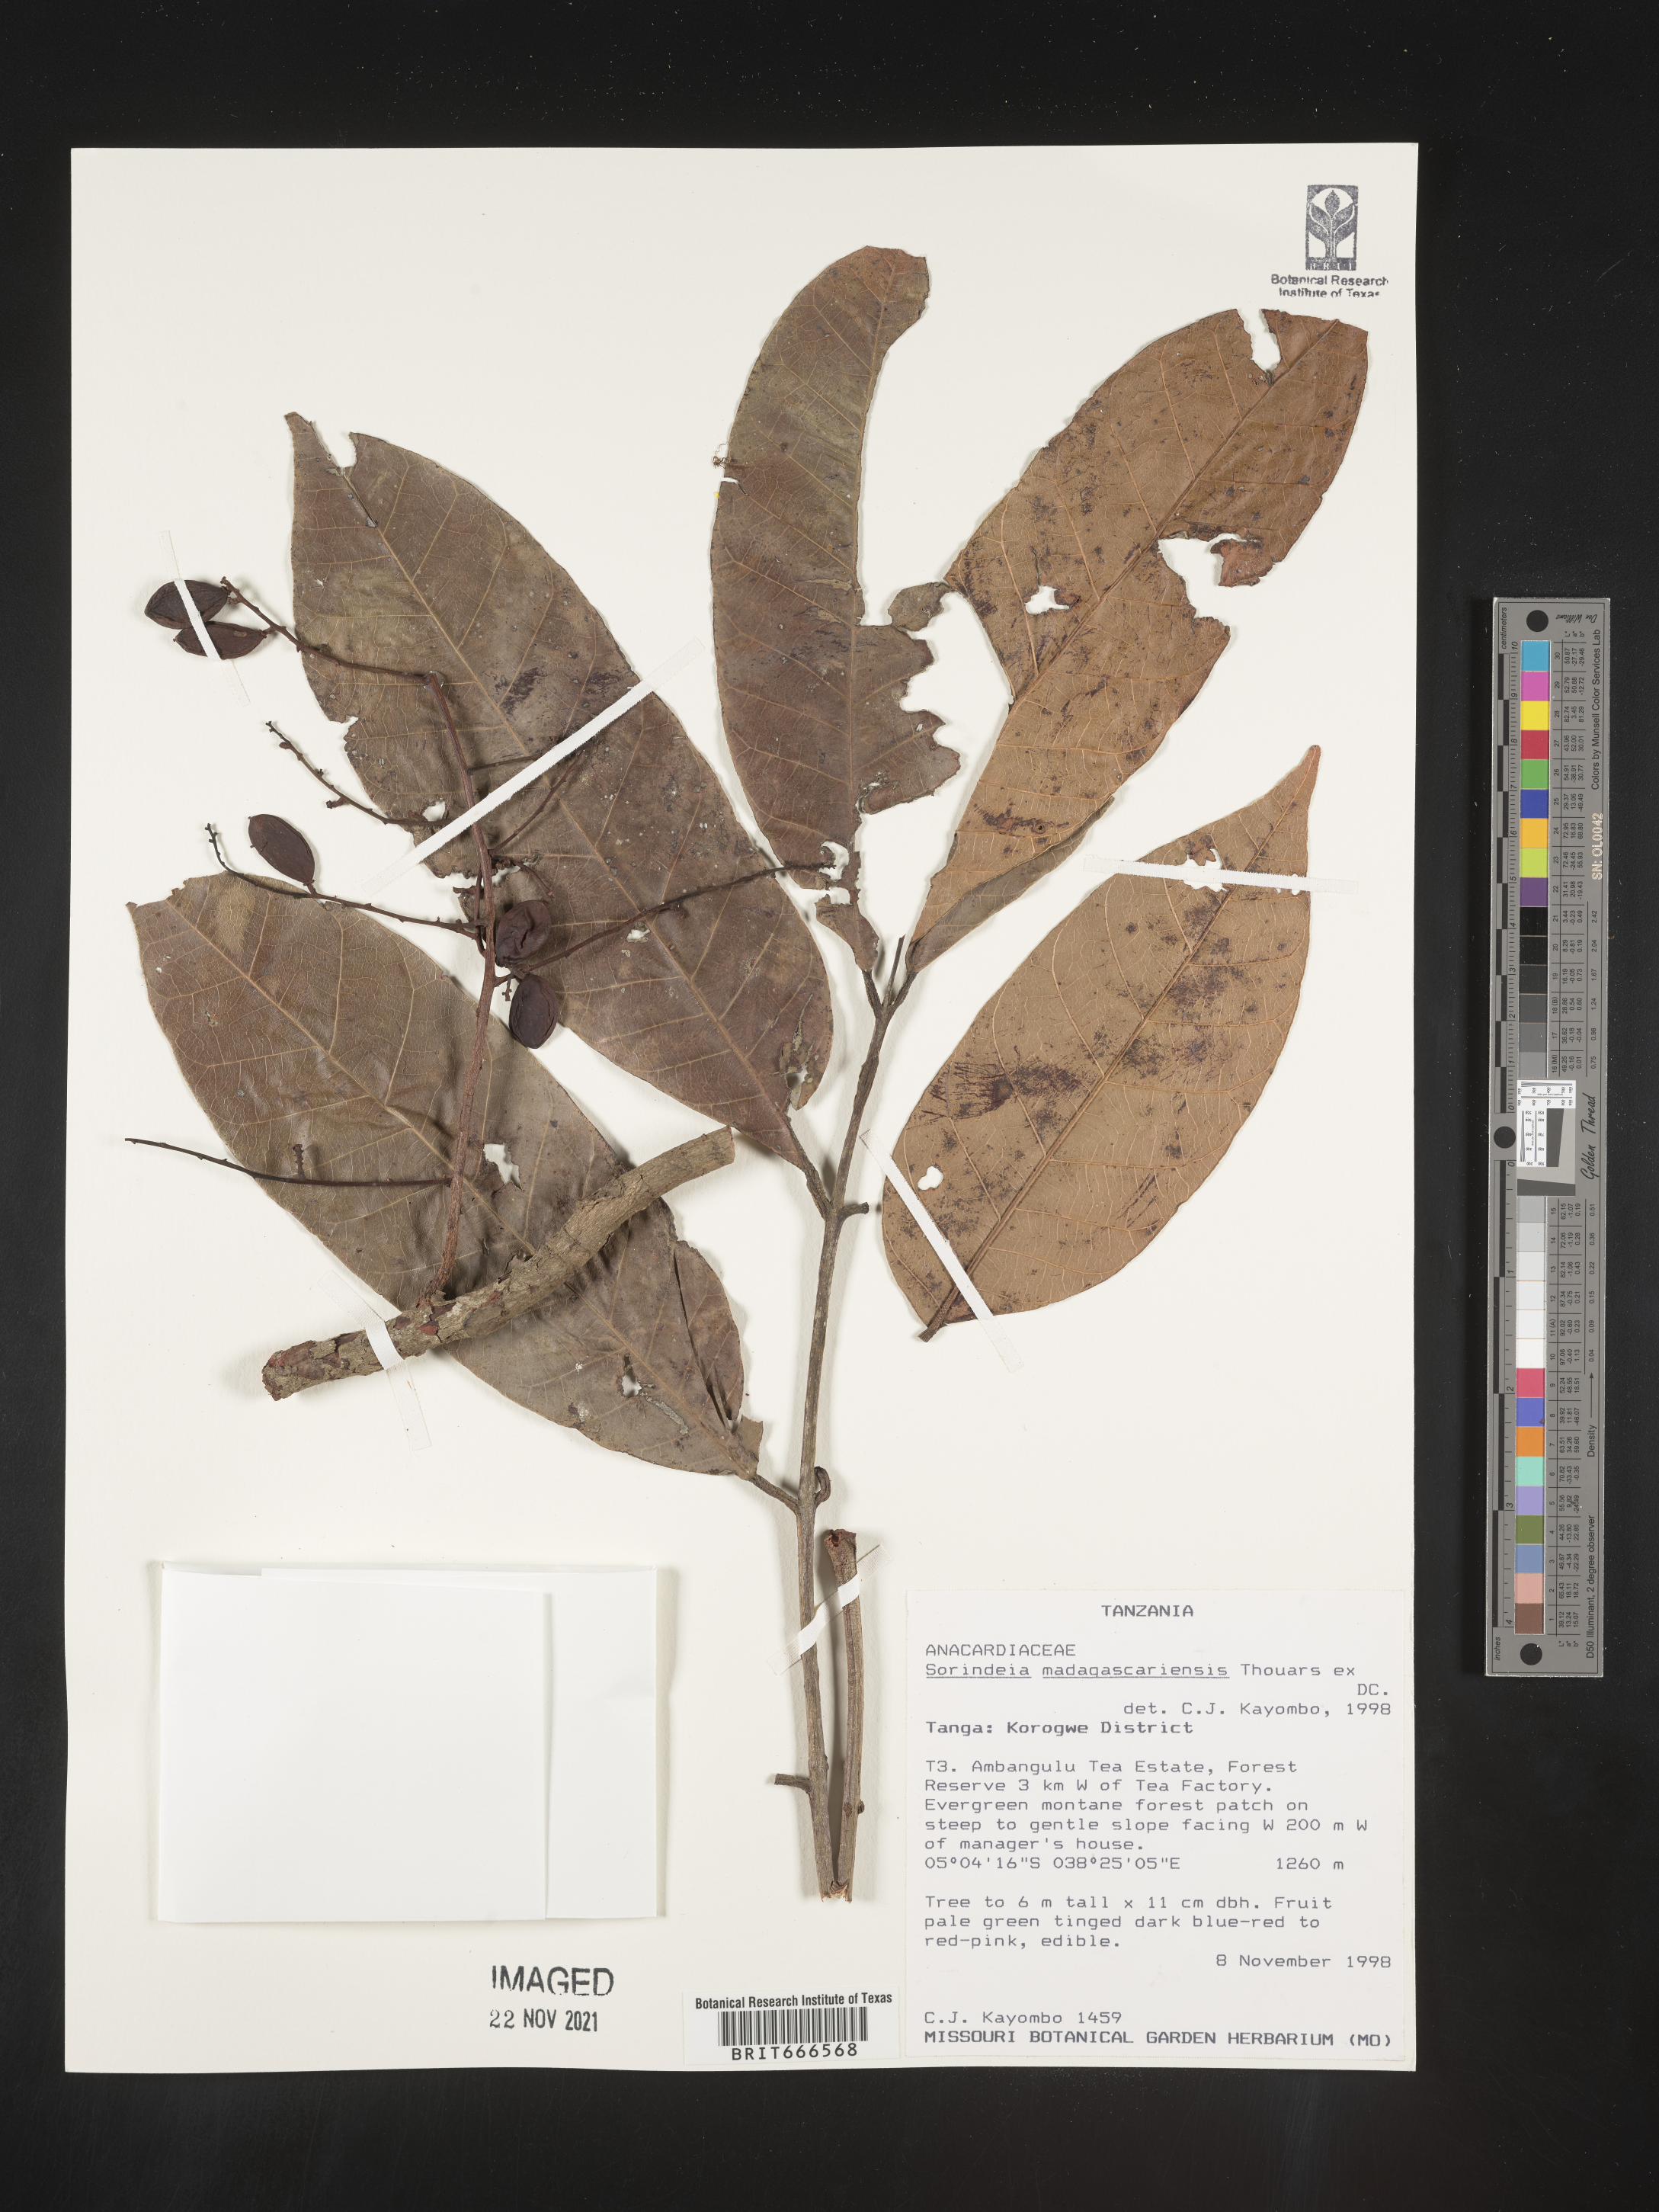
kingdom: Plantae
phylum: Tracheophyta
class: Magnoliopsida
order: Sapindales
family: Anacardiaceae
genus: Sorindeia
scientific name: Sorindeia
